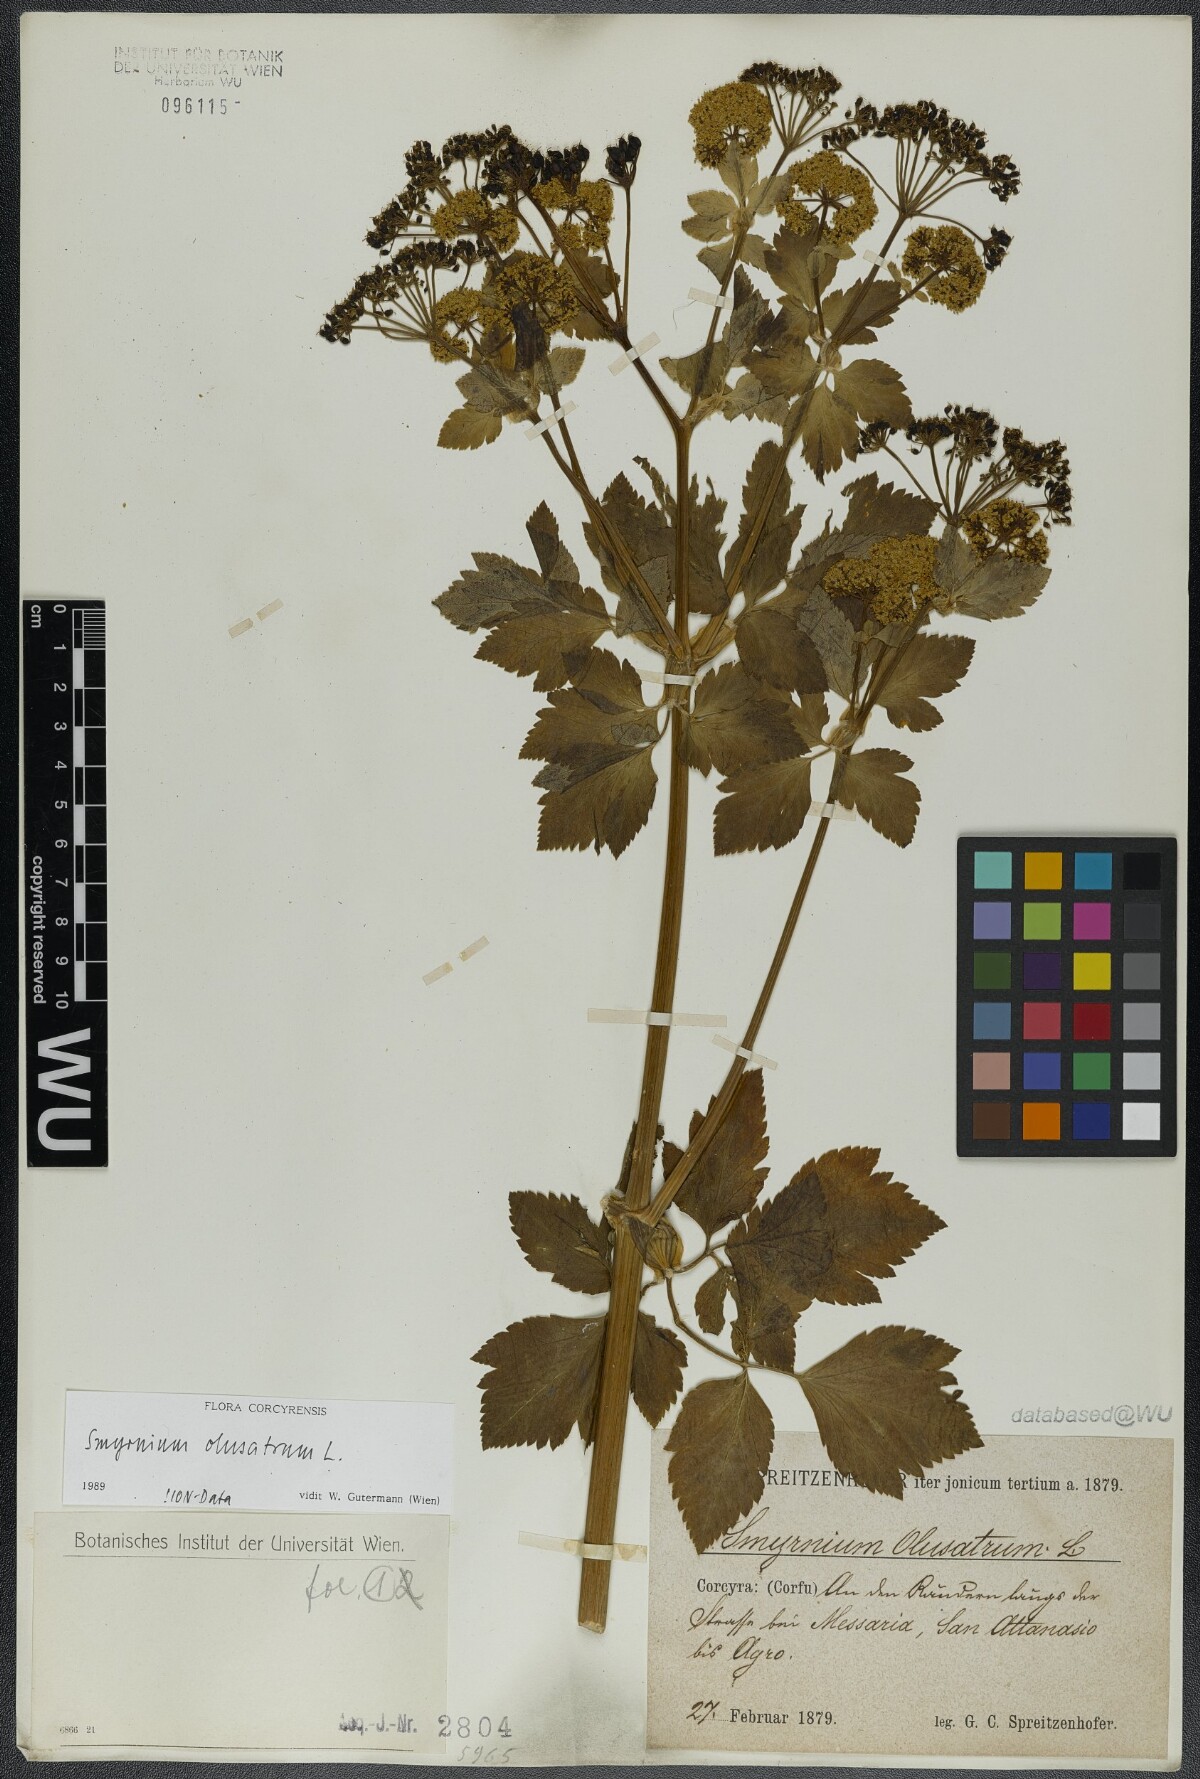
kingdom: Plantae
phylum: Tracheophyta
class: Magnoliopsida
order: Apiales
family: Apiaceae
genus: Smyrnium
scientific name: Smyrnium olusatrum
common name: Alexanders
